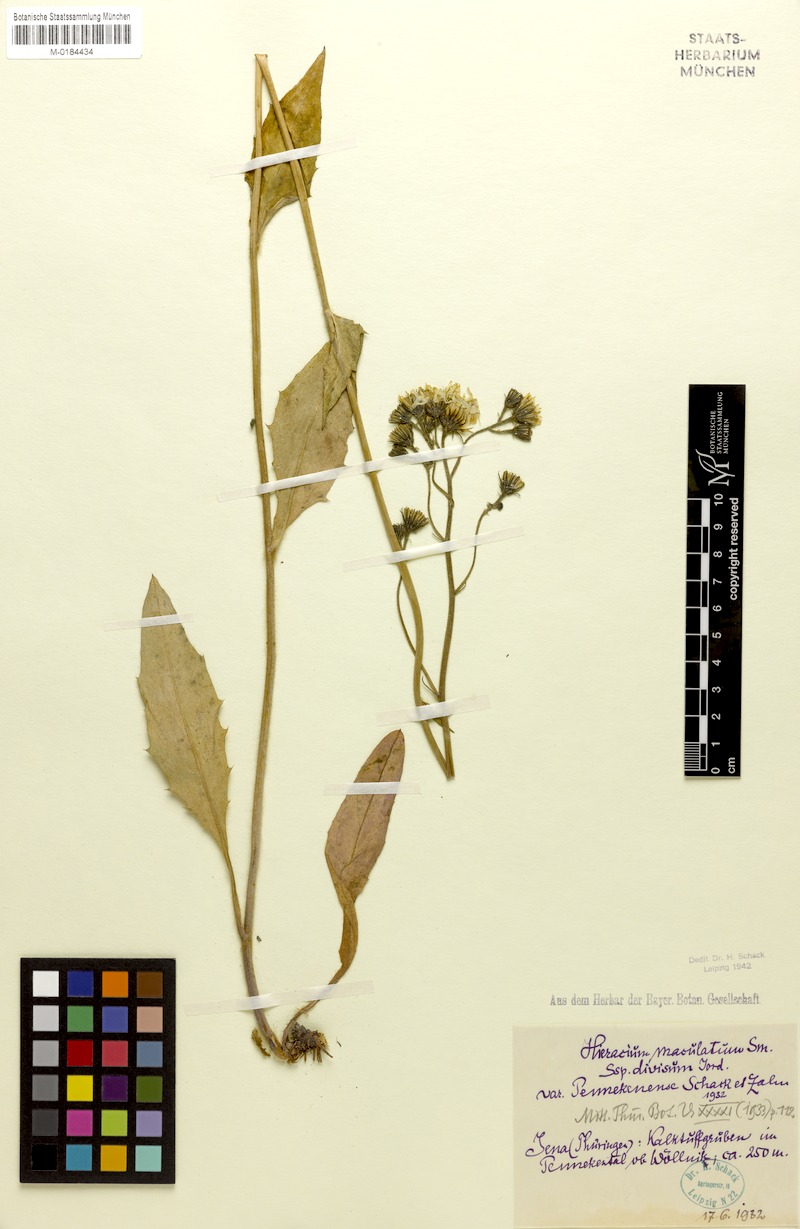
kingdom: Plantae
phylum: Tracheophyta
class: Magnoliopsida
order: Asterales
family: Asteraceae
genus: Hieracium
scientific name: Hieracium maculatum
